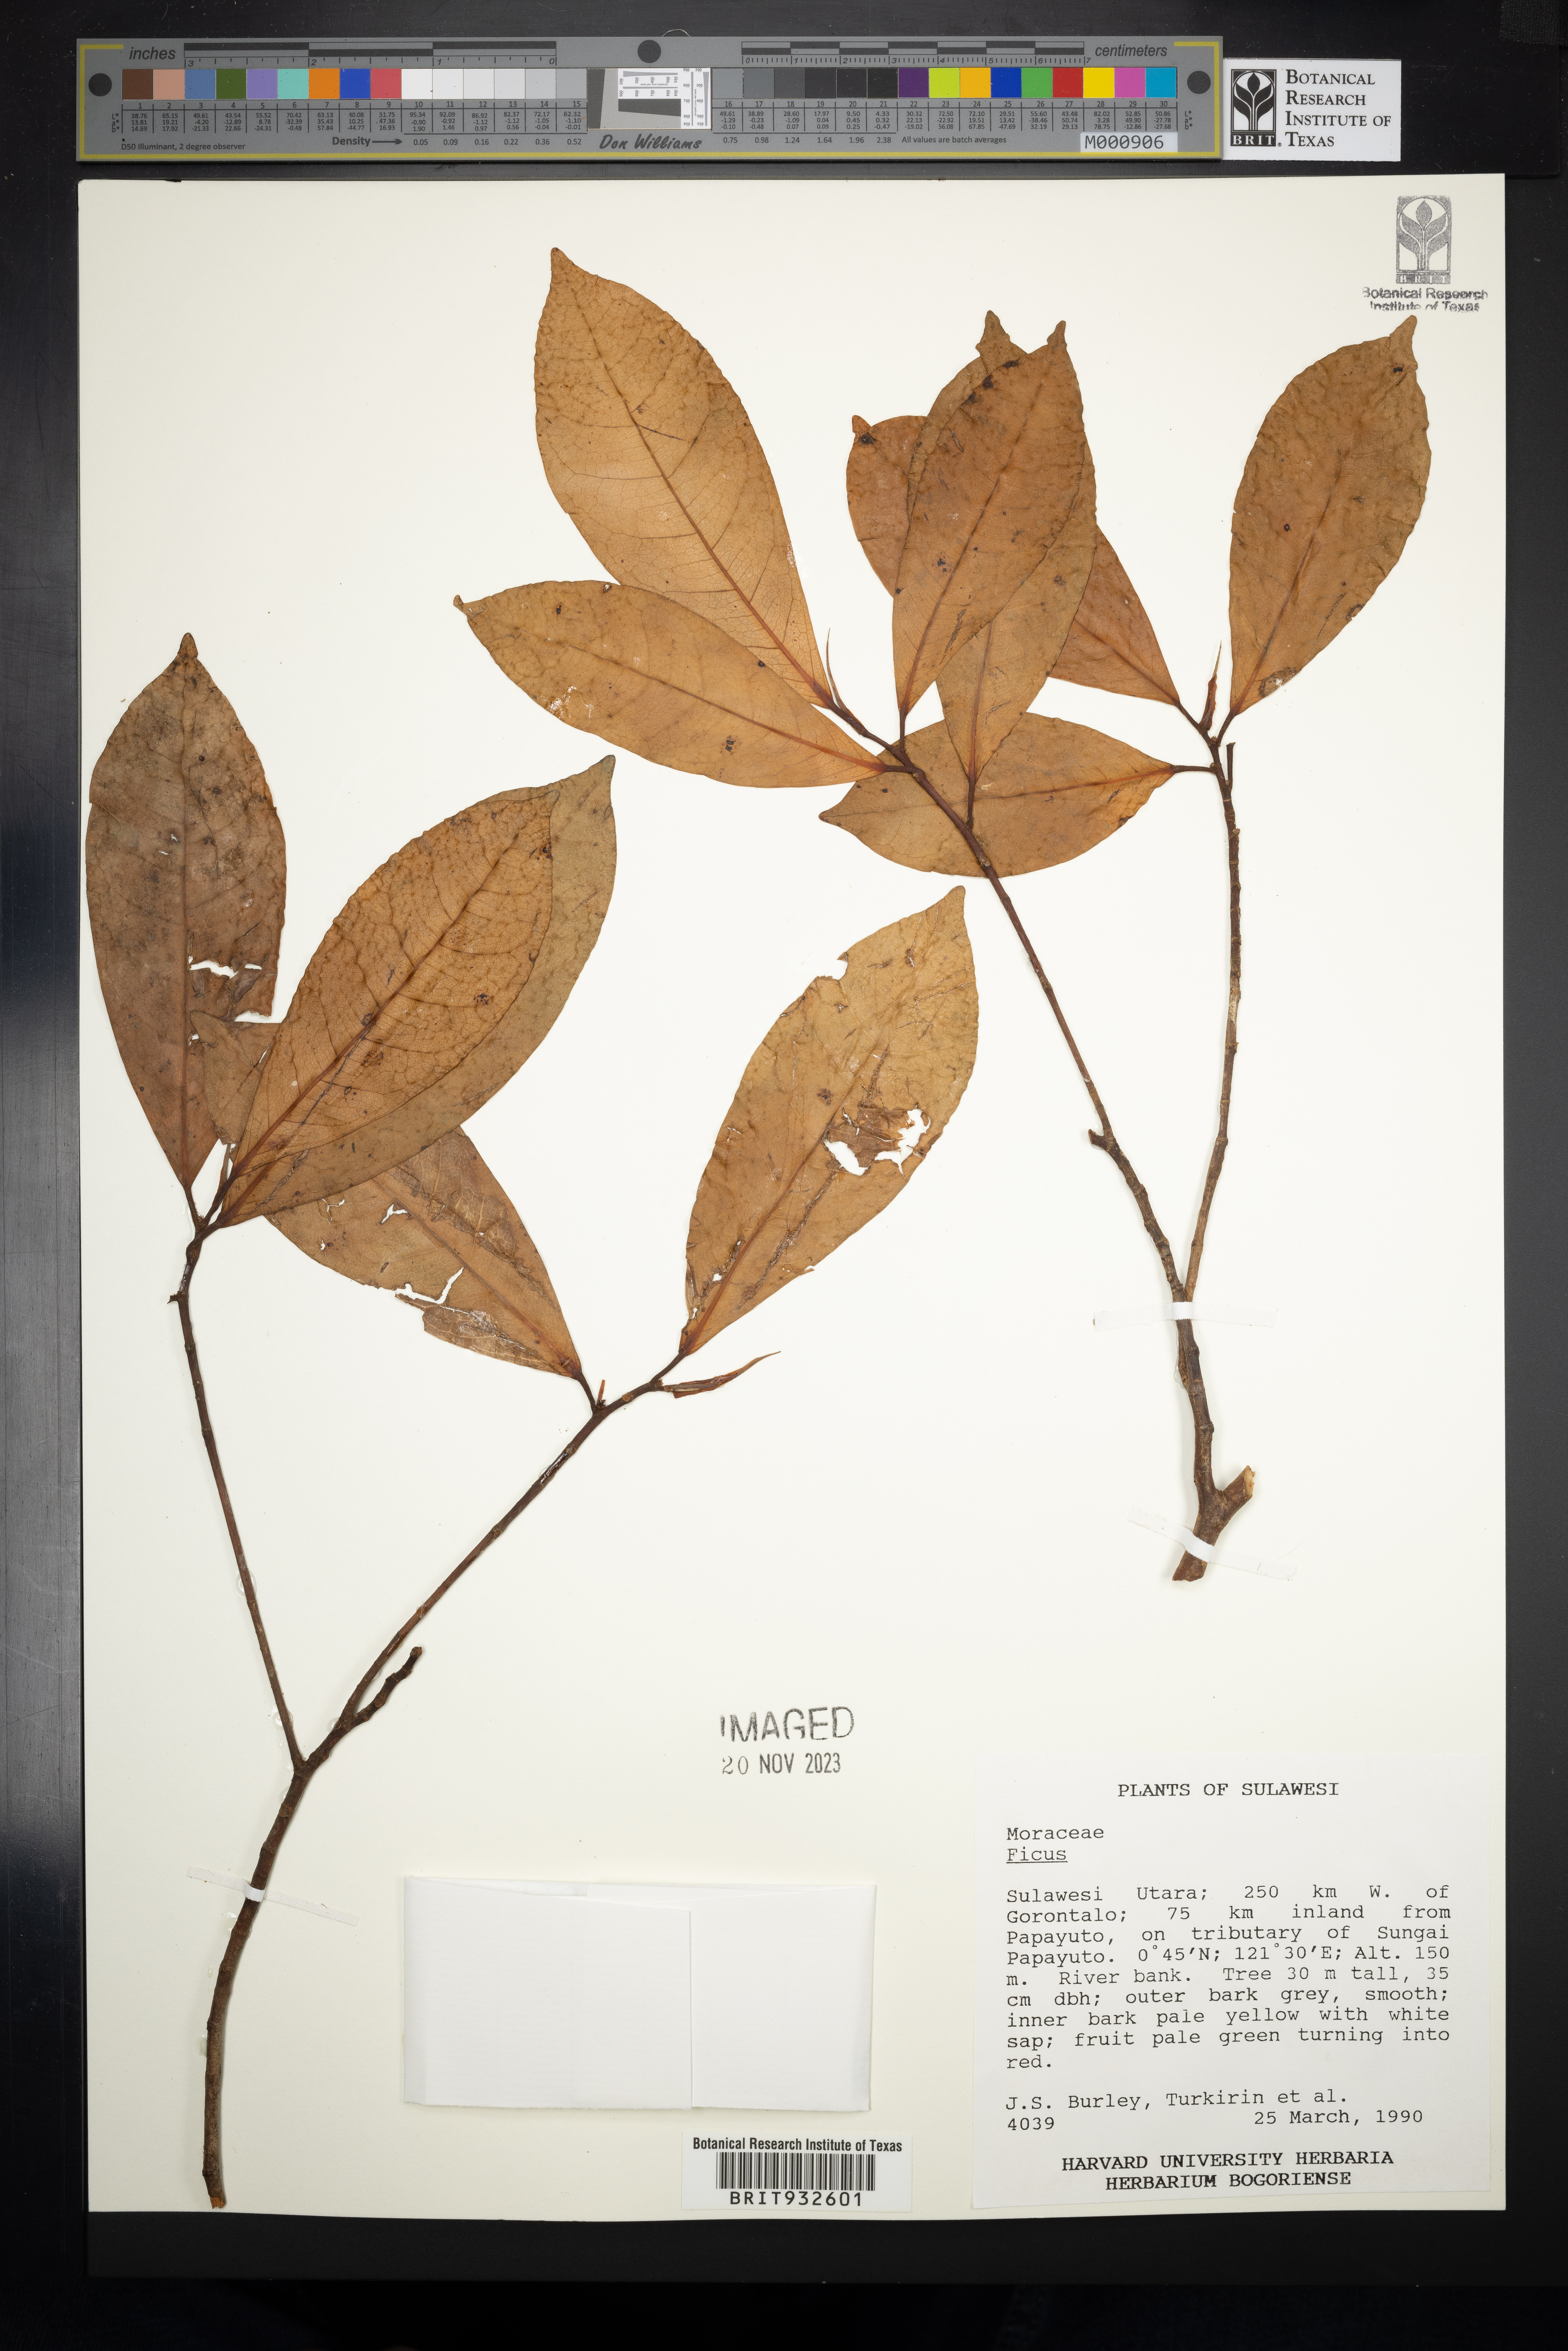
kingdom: Plantae
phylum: Tracheophyta
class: Magnoliopsida
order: Rosales
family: Moraceae
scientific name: Moraceae
